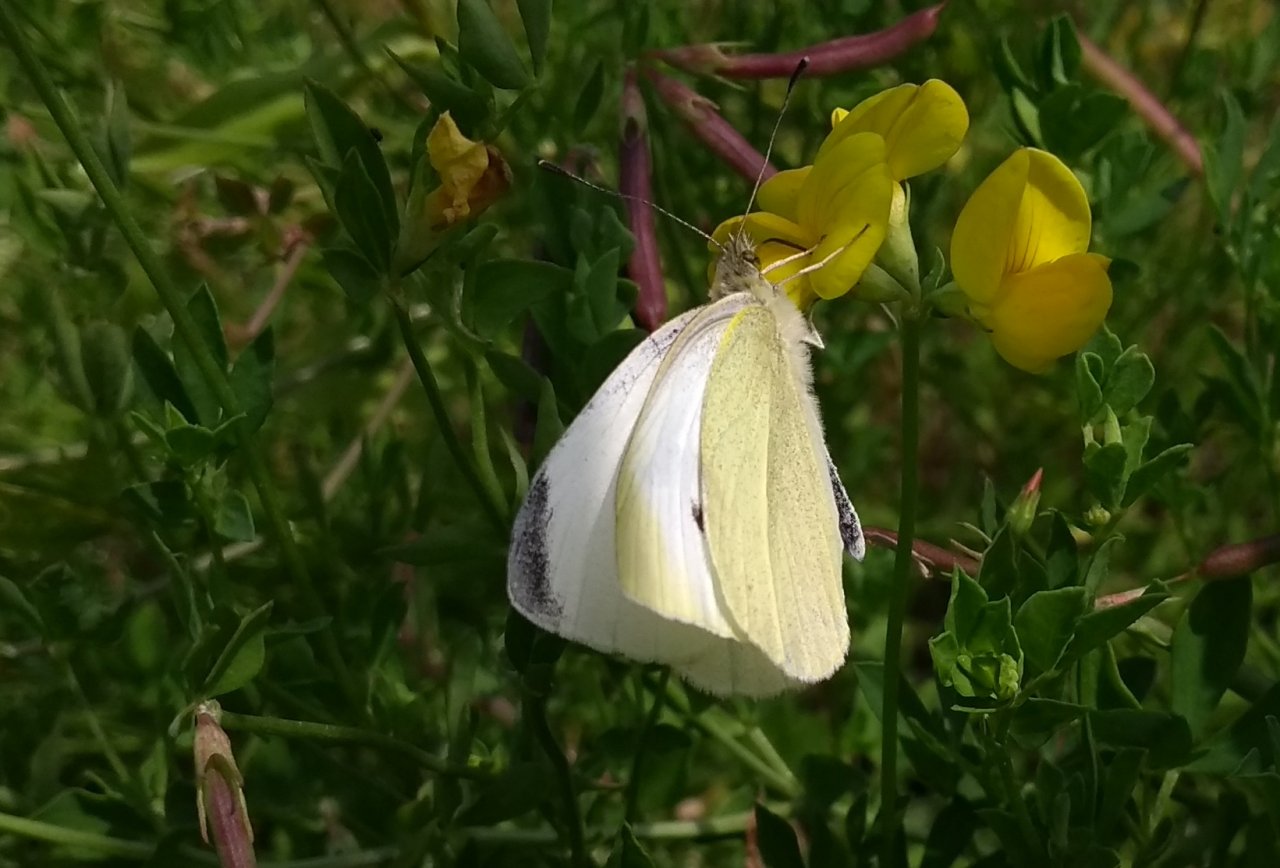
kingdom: Animalia
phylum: Arthropoda
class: Insecta
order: Lepidoptera
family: Pieridae
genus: Pieris
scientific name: Pieris rapae
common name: Cabbage White
